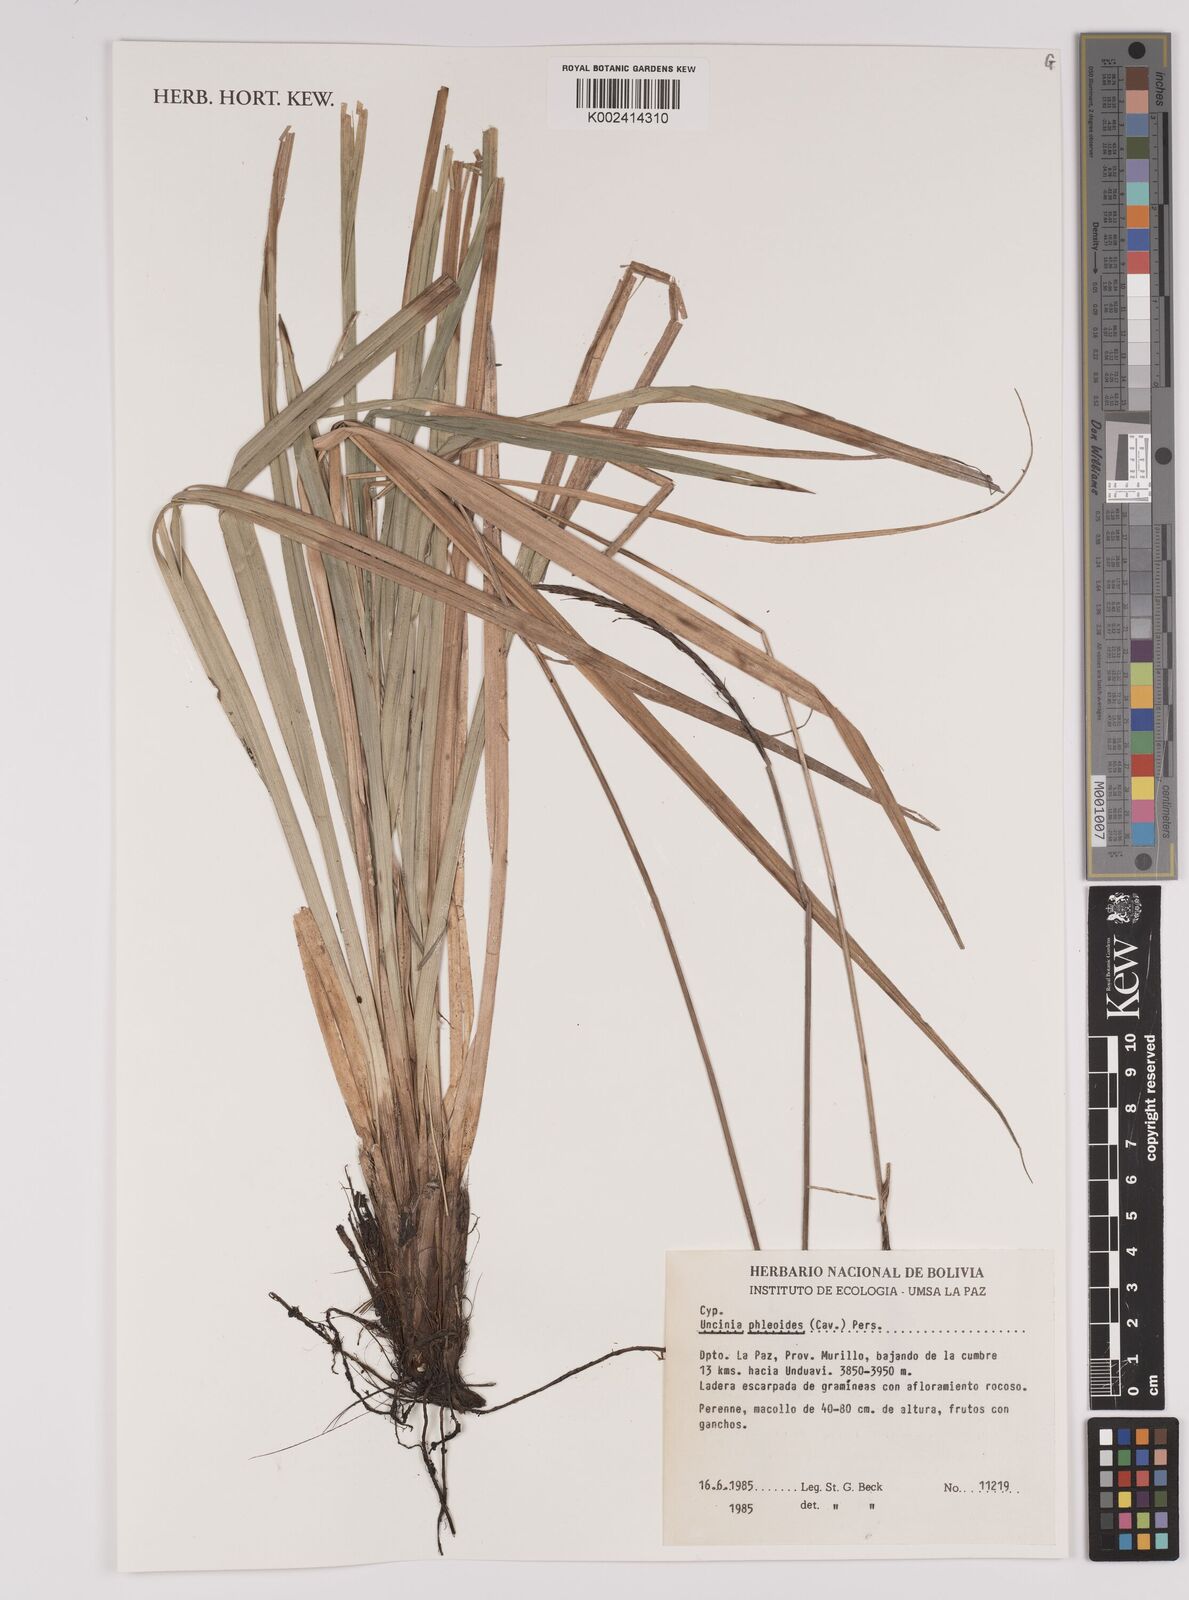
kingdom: Plantae
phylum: Tracheophyta
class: Liliopsida
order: Poales
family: Cyperaceae
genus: Carex
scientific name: Carex phleoides
